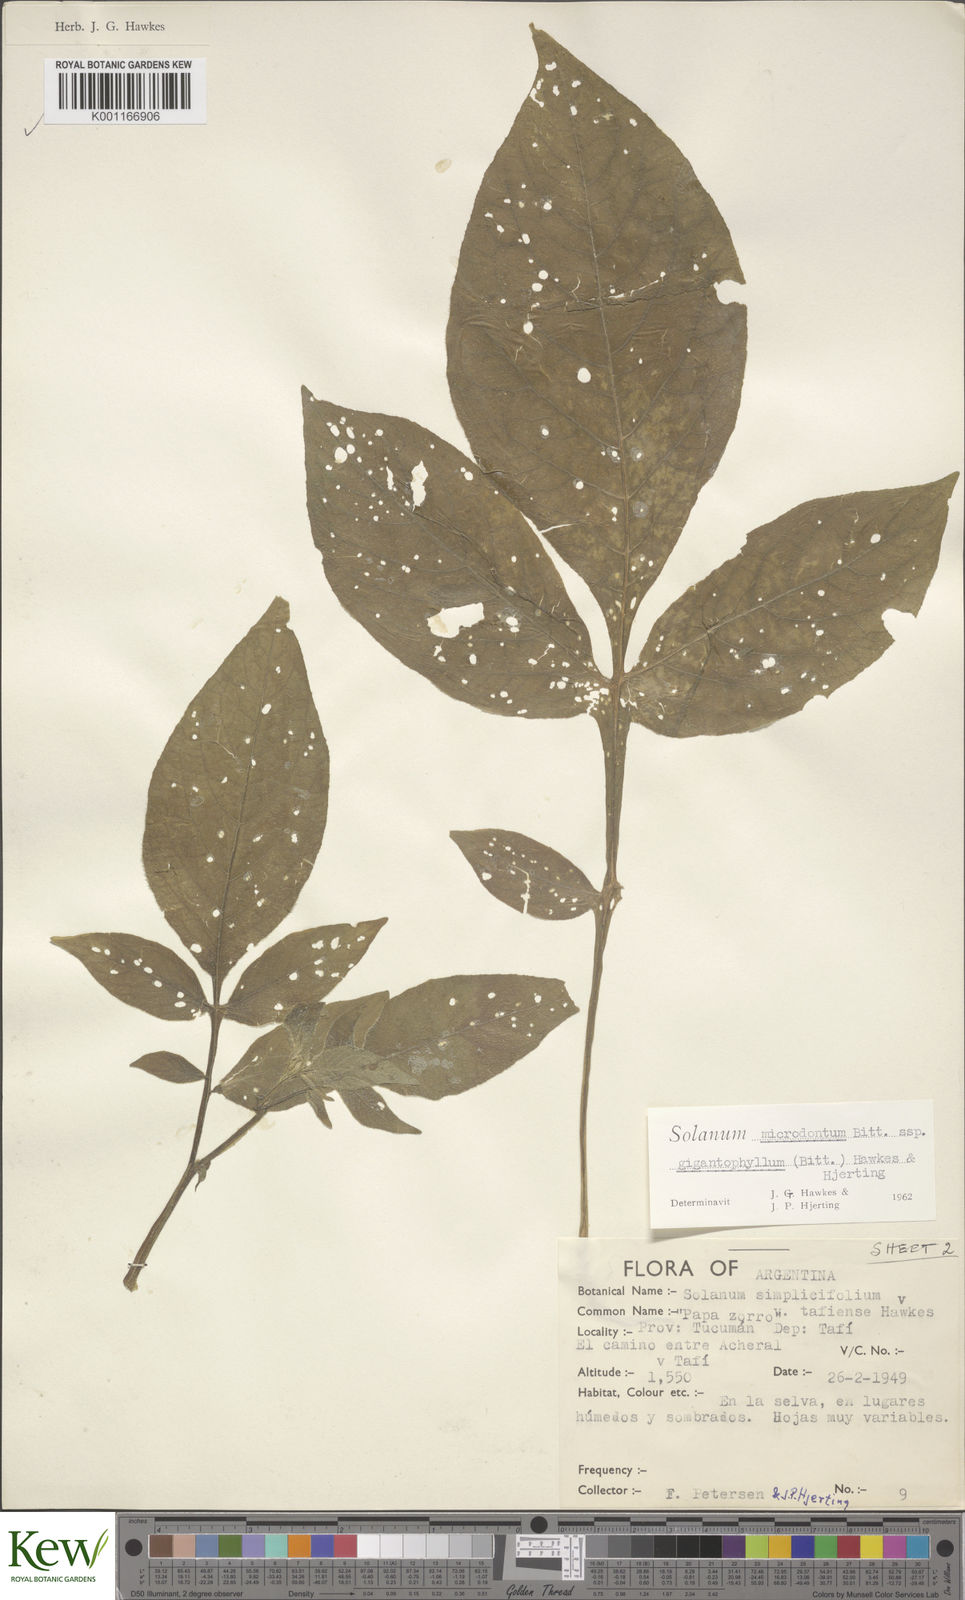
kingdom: Plantae
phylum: Tracheophyta
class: Magnoliopsida
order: Solanales
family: Solanaceae
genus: Solanum
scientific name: Solanum microdontum
